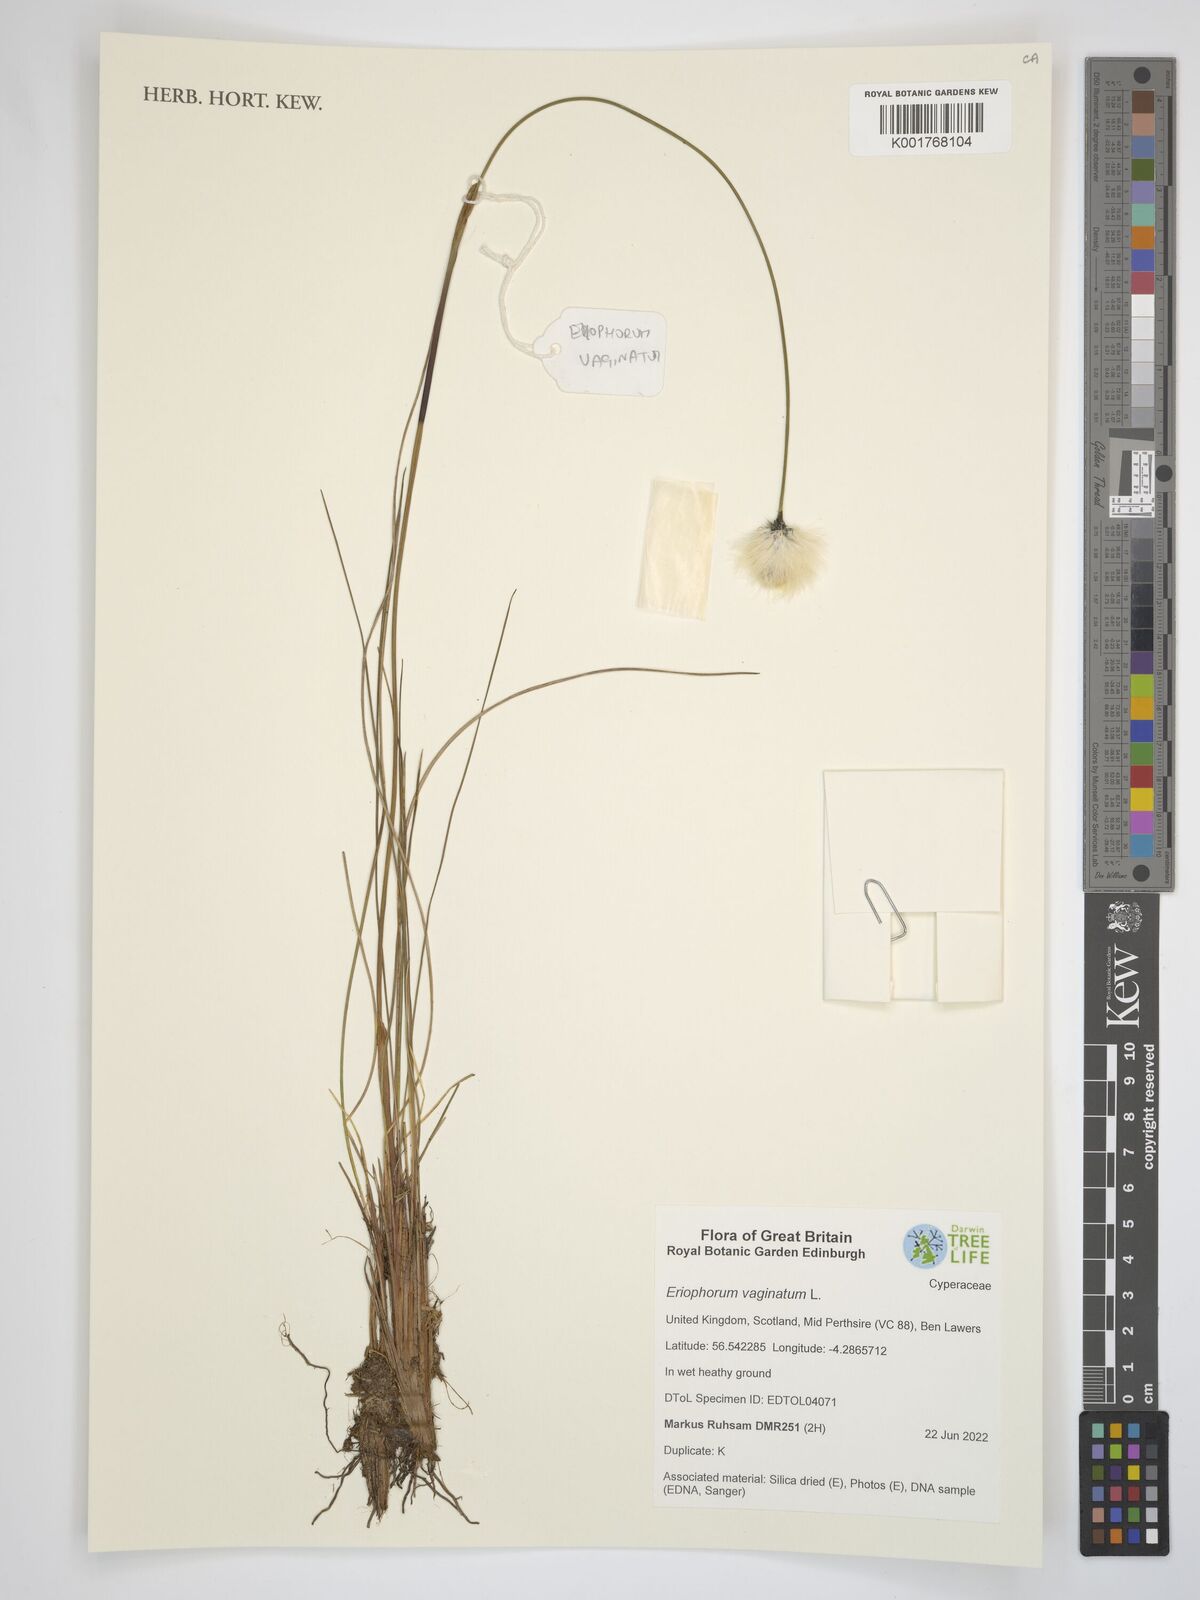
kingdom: Plantae
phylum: Tracheophyta
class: Liliopsida
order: Poales
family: Cyperaceae
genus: Eriophorum
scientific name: Eriophorum vaginatum
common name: Hare's-tail cottongrass
